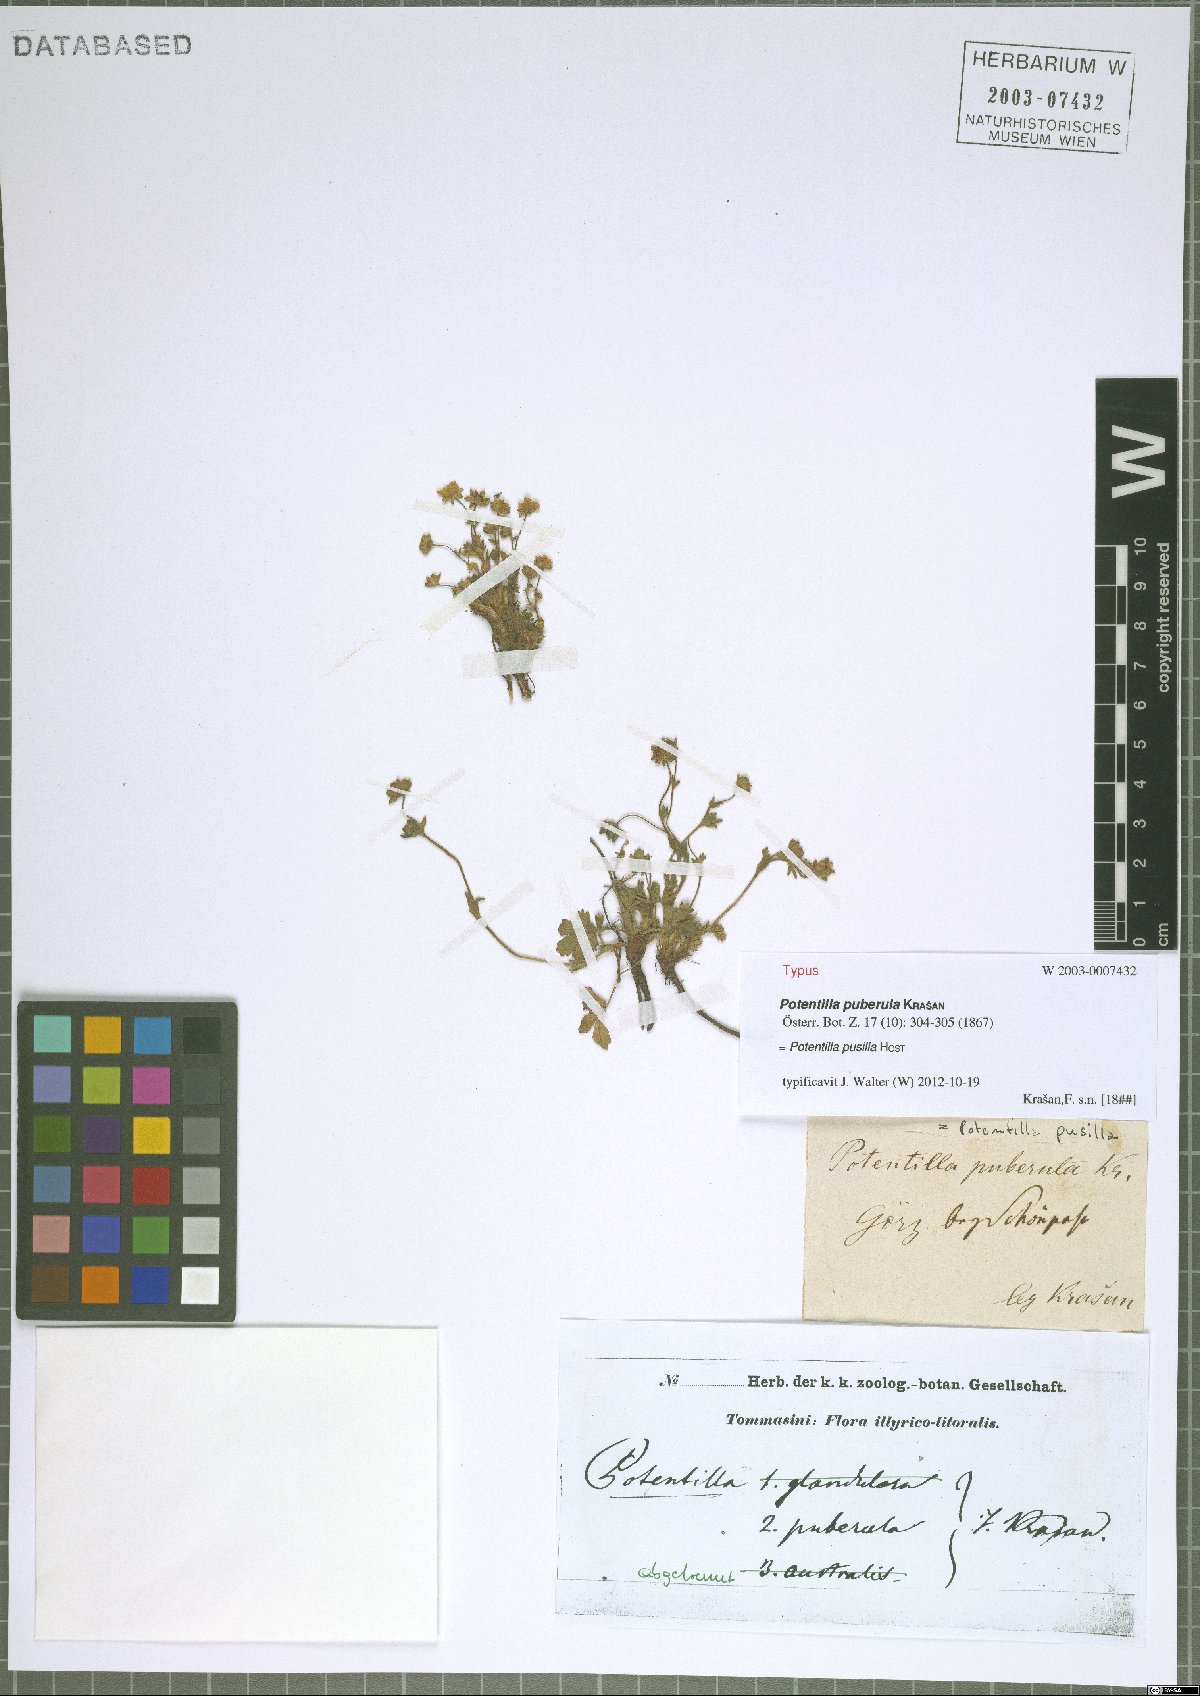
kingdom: Plantae
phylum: Tracheophyta
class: Magnoliopsida
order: Rosales
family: Rosaceae
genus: Potentilla
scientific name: Potentilla pusilla
